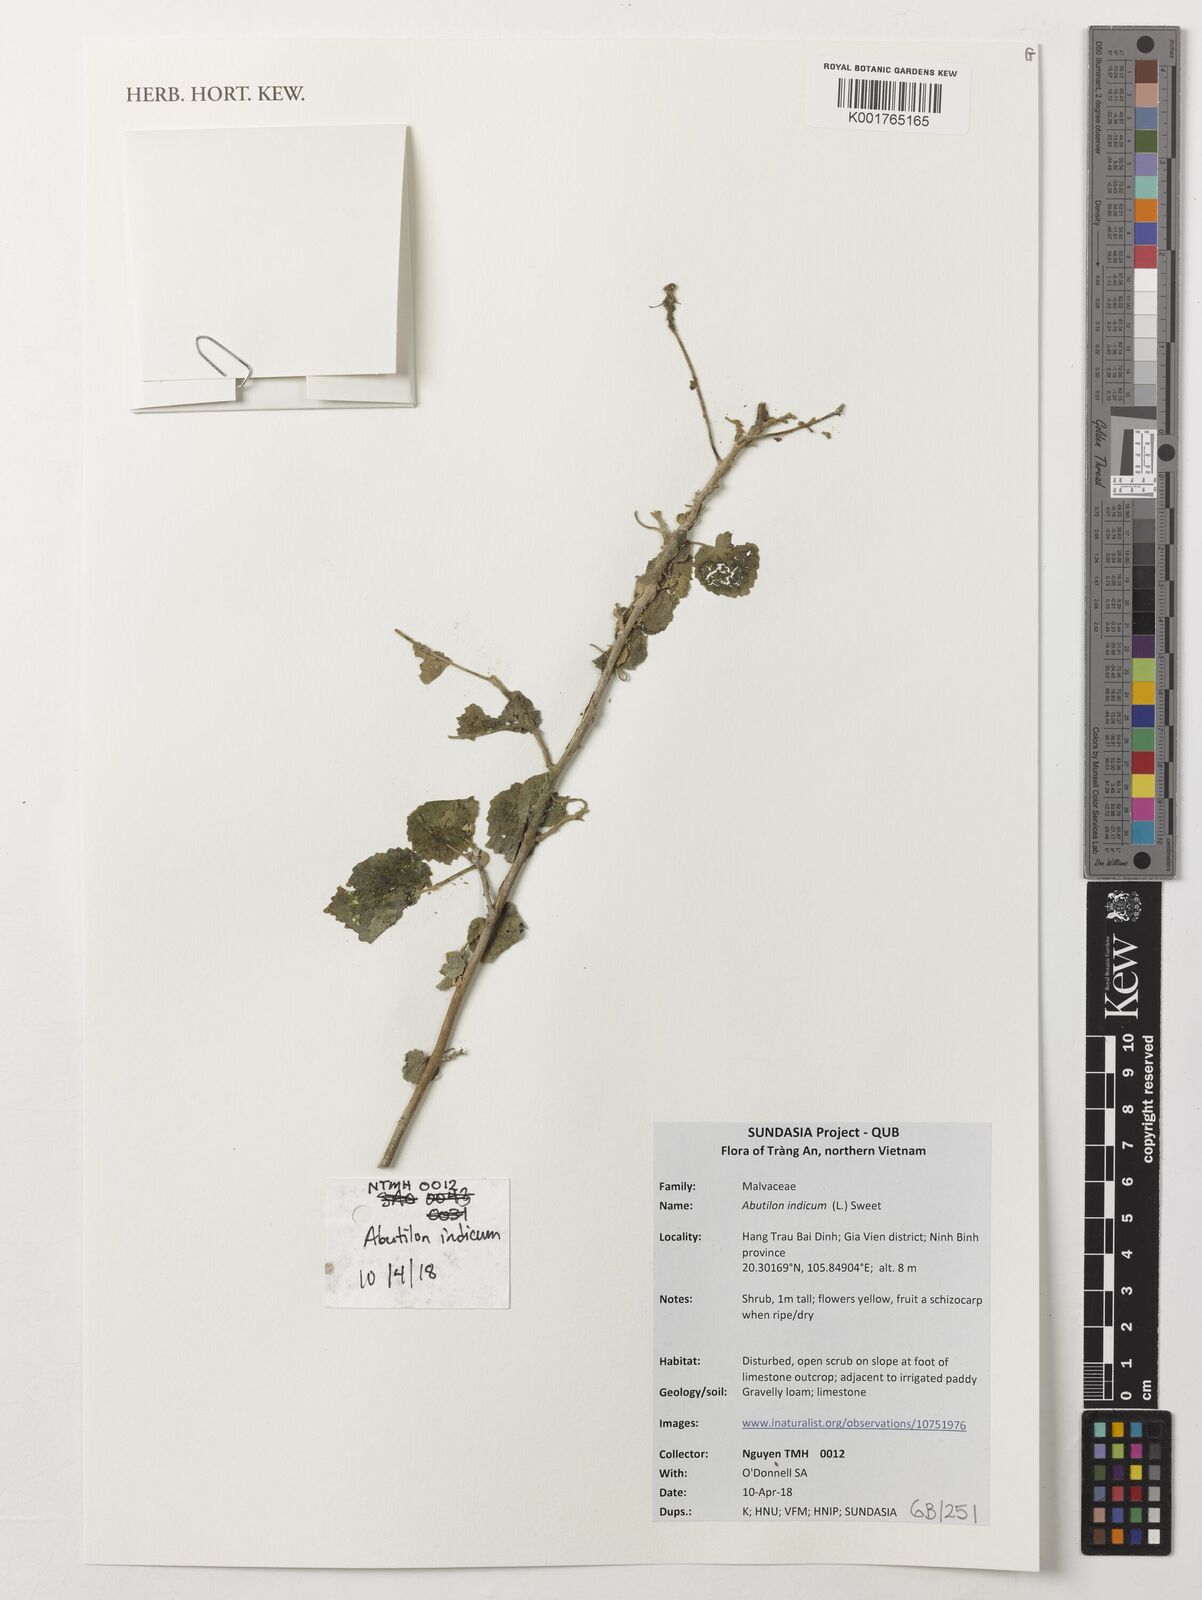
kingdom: Plantae
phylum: Tracheophyta
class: Magnoliopsida
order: Malvales
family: Malvaceae
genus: Abutilon
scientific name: Abutilon indicum
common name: Indian abutilon
